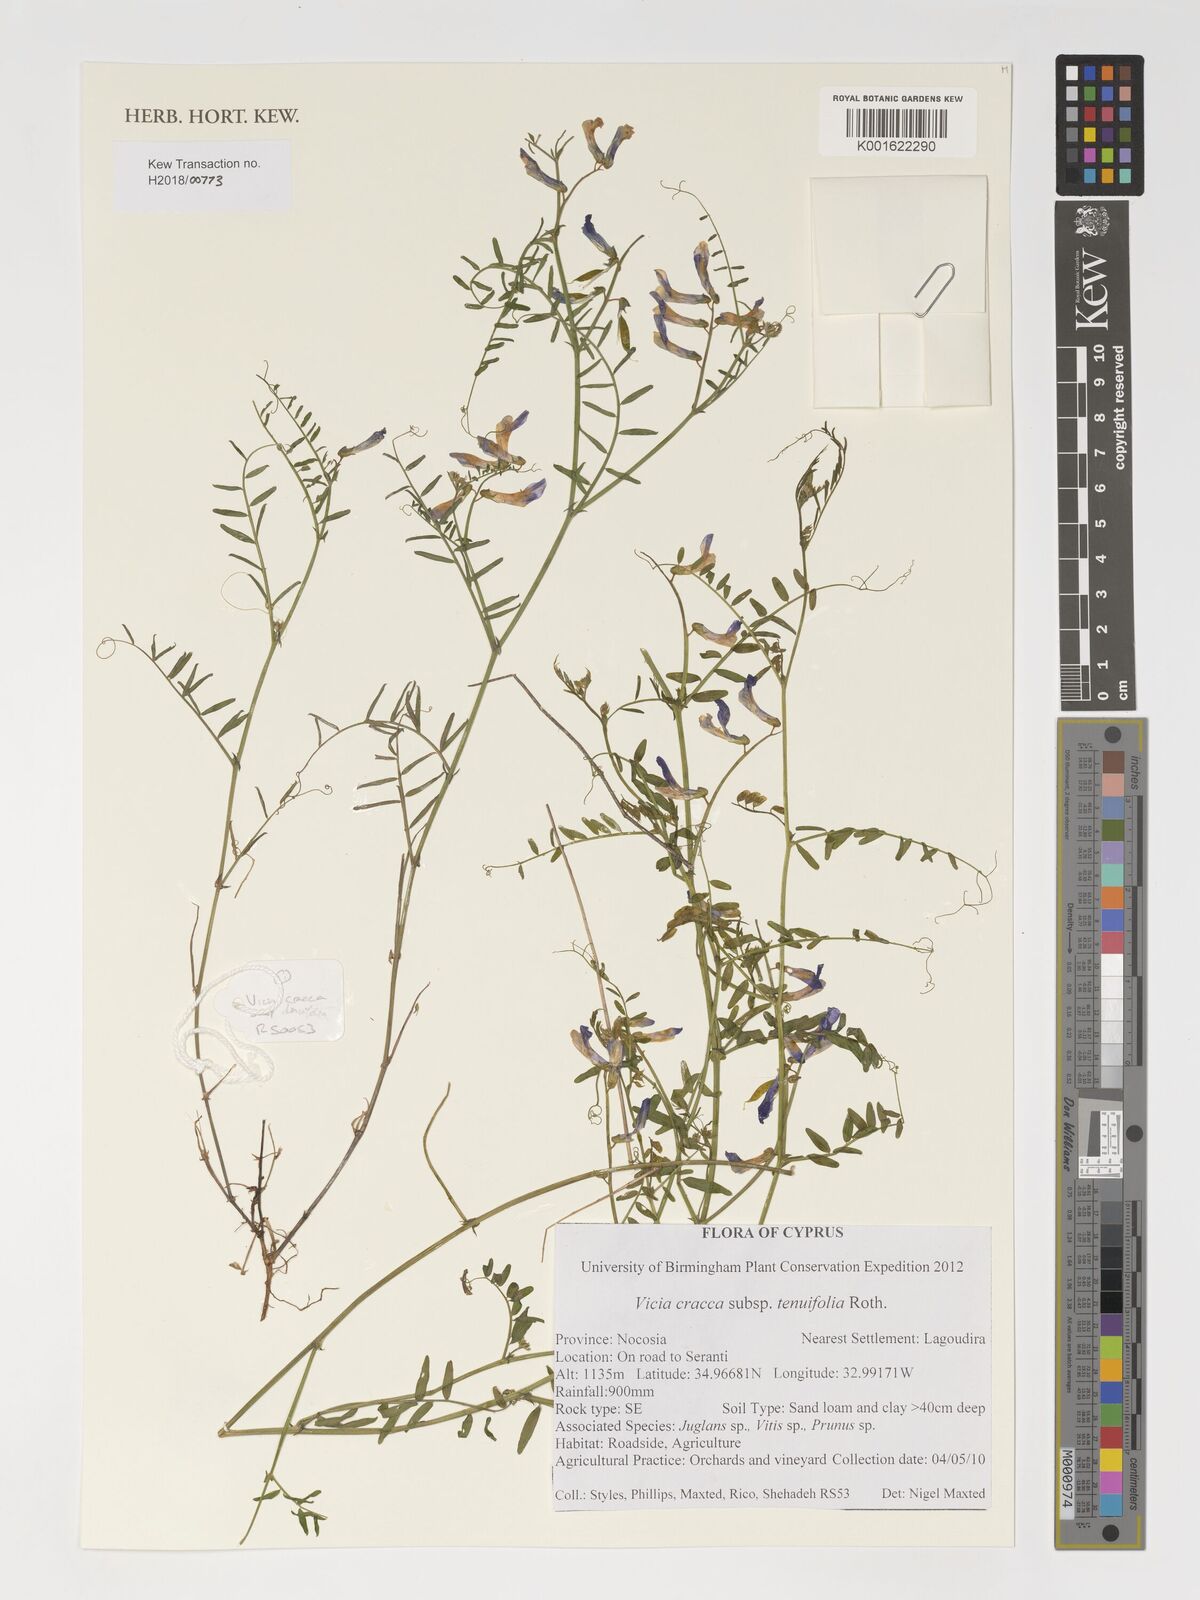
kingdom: Plantae
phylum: Tracheophyta
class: Magnoliopsida
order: Fabales
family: Fabaceae
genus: Vicia
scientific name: Vicia tenuifolia
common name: Fine-leaved vetch
